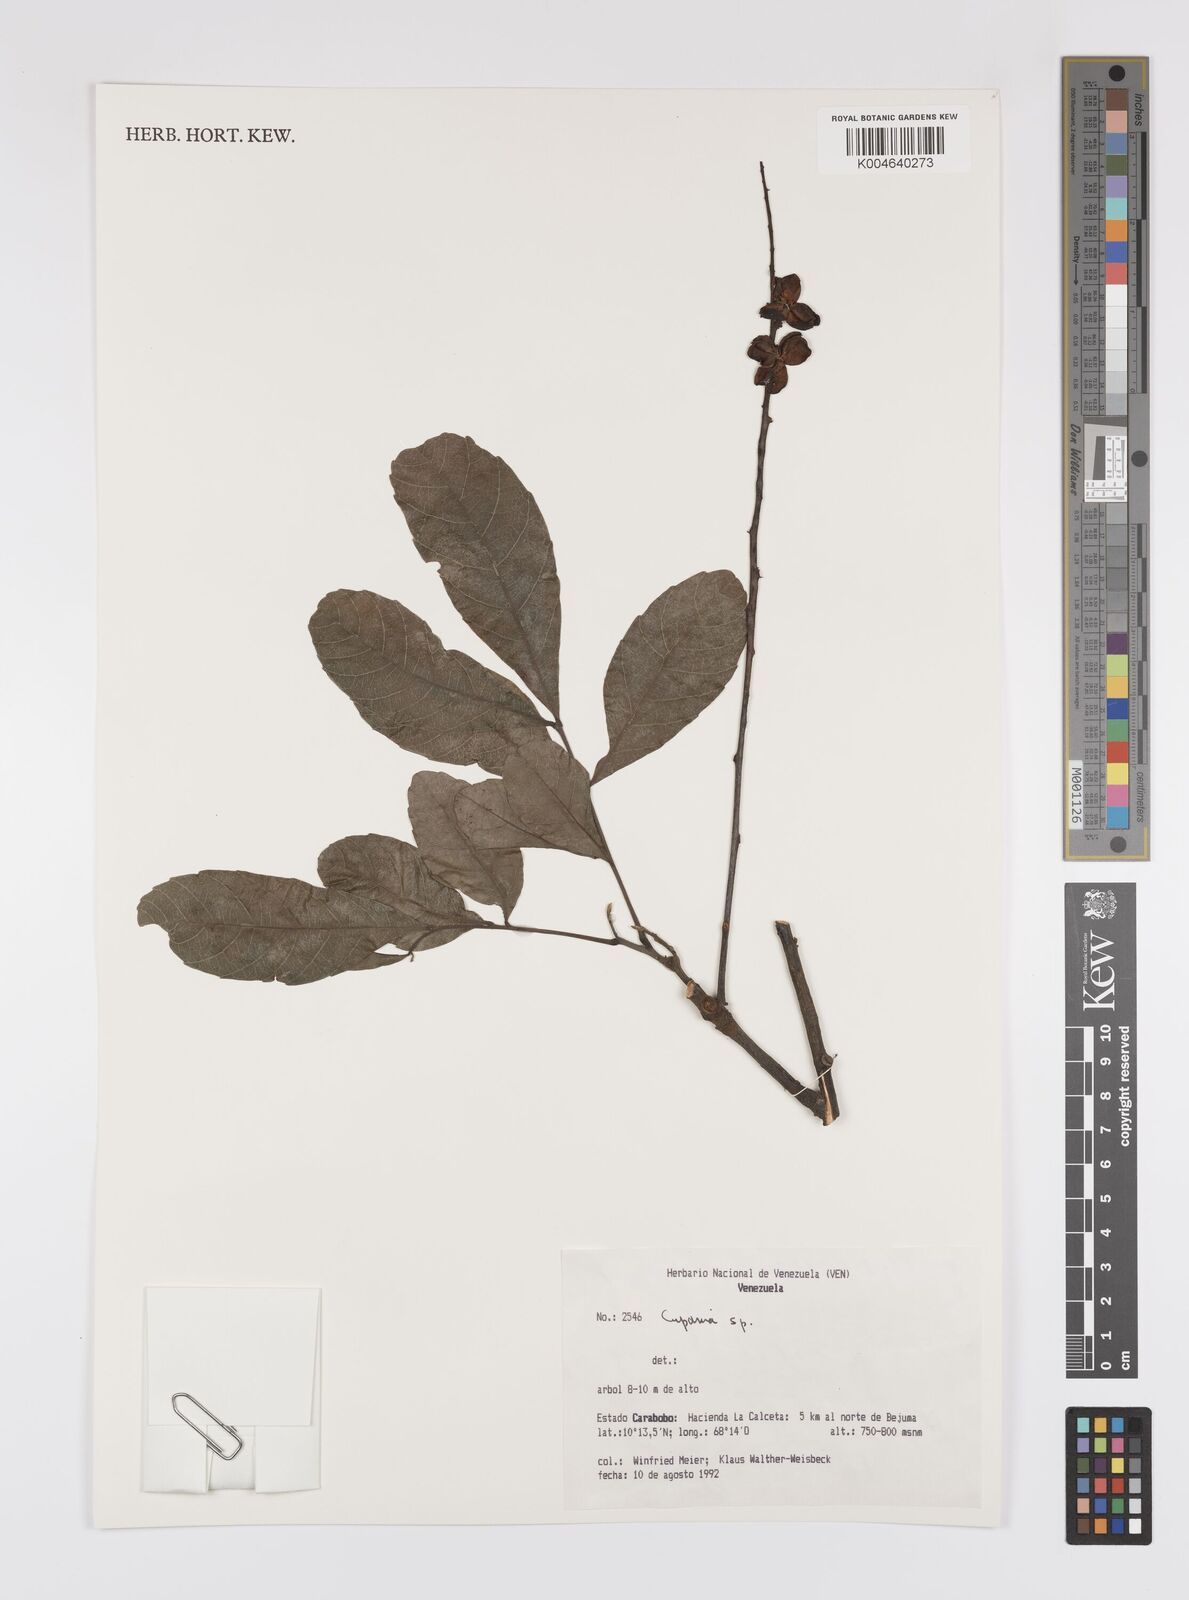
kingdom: Plantae
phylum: Tracheophyta
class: Magnoliopsida
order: Sapindales
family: Sapindaceae
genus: Cupania
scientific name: Cupania
